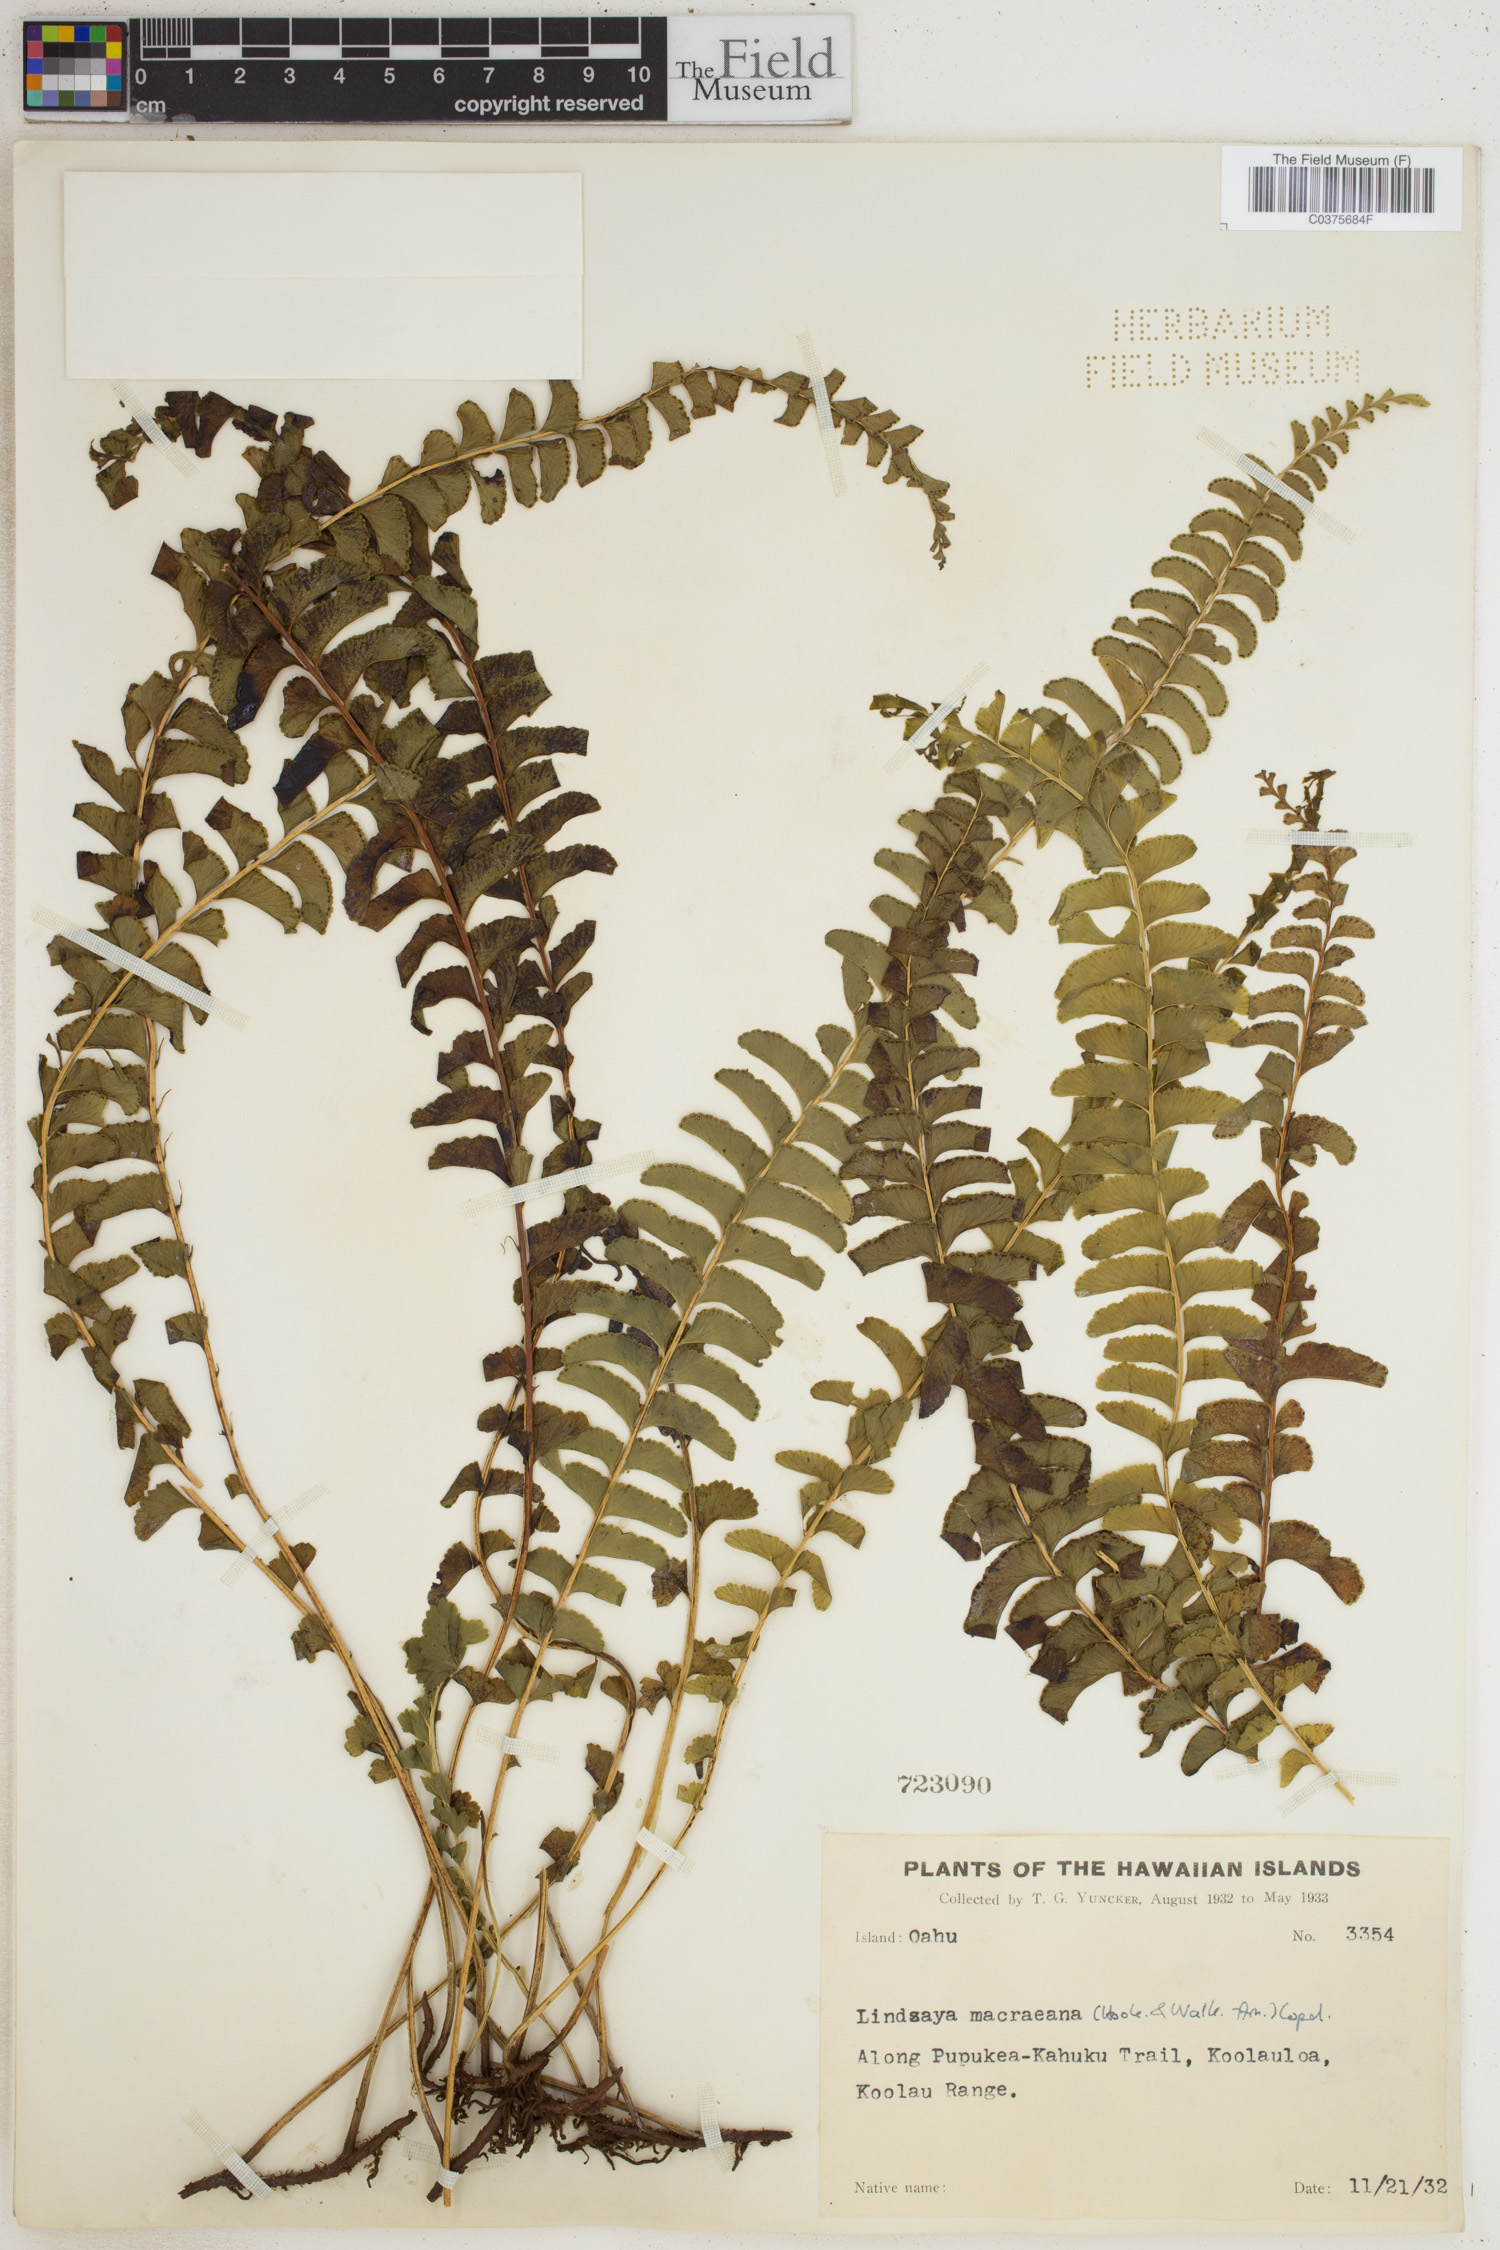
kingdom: Plantae
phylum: Tracheophyta
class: Polypodiopsida
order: Polypodiales
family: Lindsaeaceae
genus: Lindsaea
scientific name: Lindsaea macraeana
